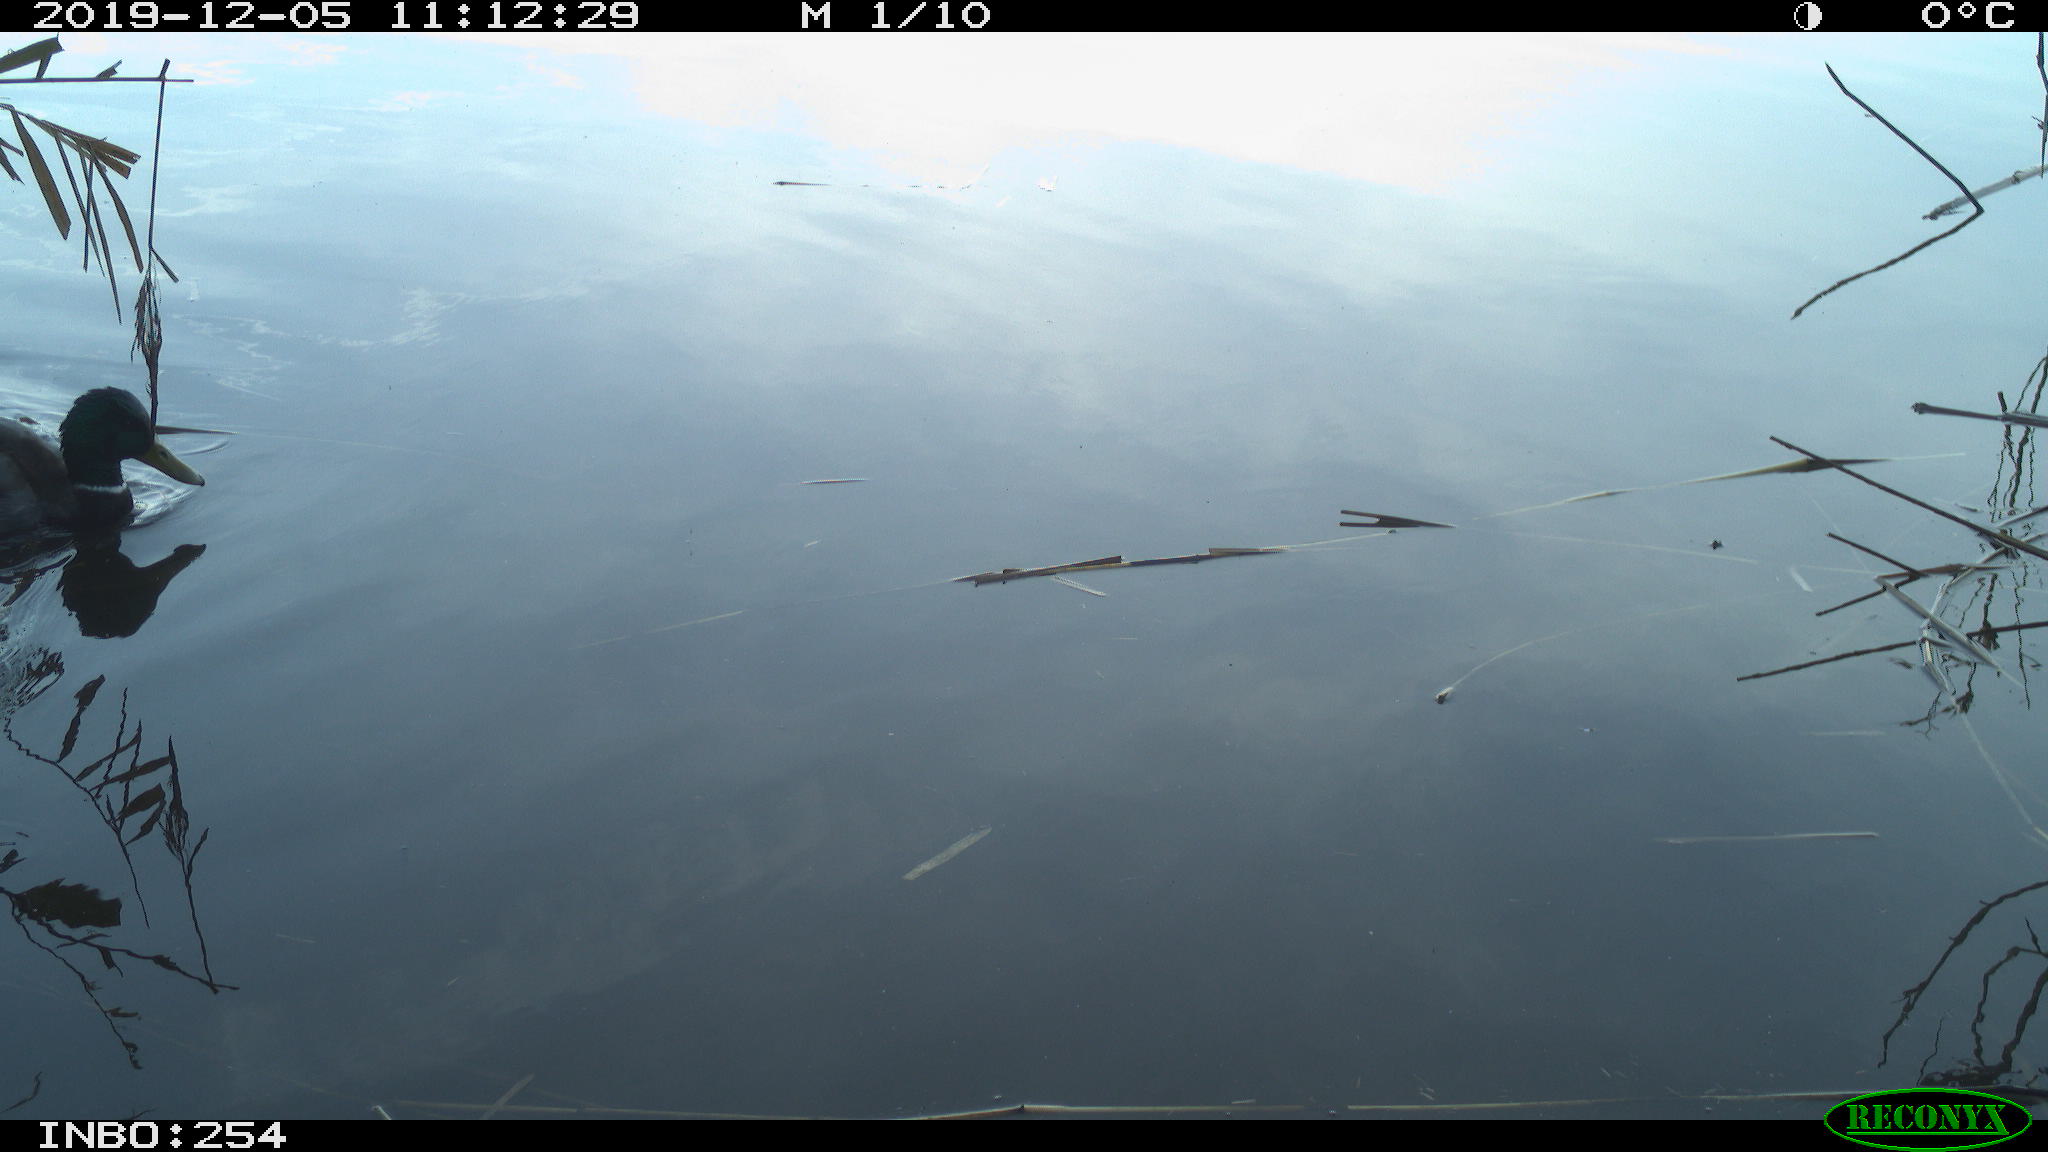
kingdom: Animalia
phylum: Chordata
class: Aves
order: Anseriformes
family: Anatidae
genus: Anas
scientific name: Anas platyrhynchos
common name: Mallard
